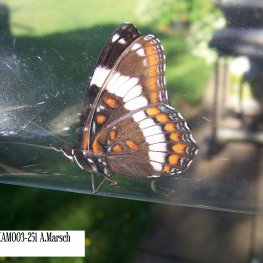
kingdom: Animalia
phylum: Arthropoda
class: Insecta
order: Lepidoptera
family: Nymphalidae
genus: Limenitis
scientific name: Limenitis arthemis
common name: Red-spotted Admiral
